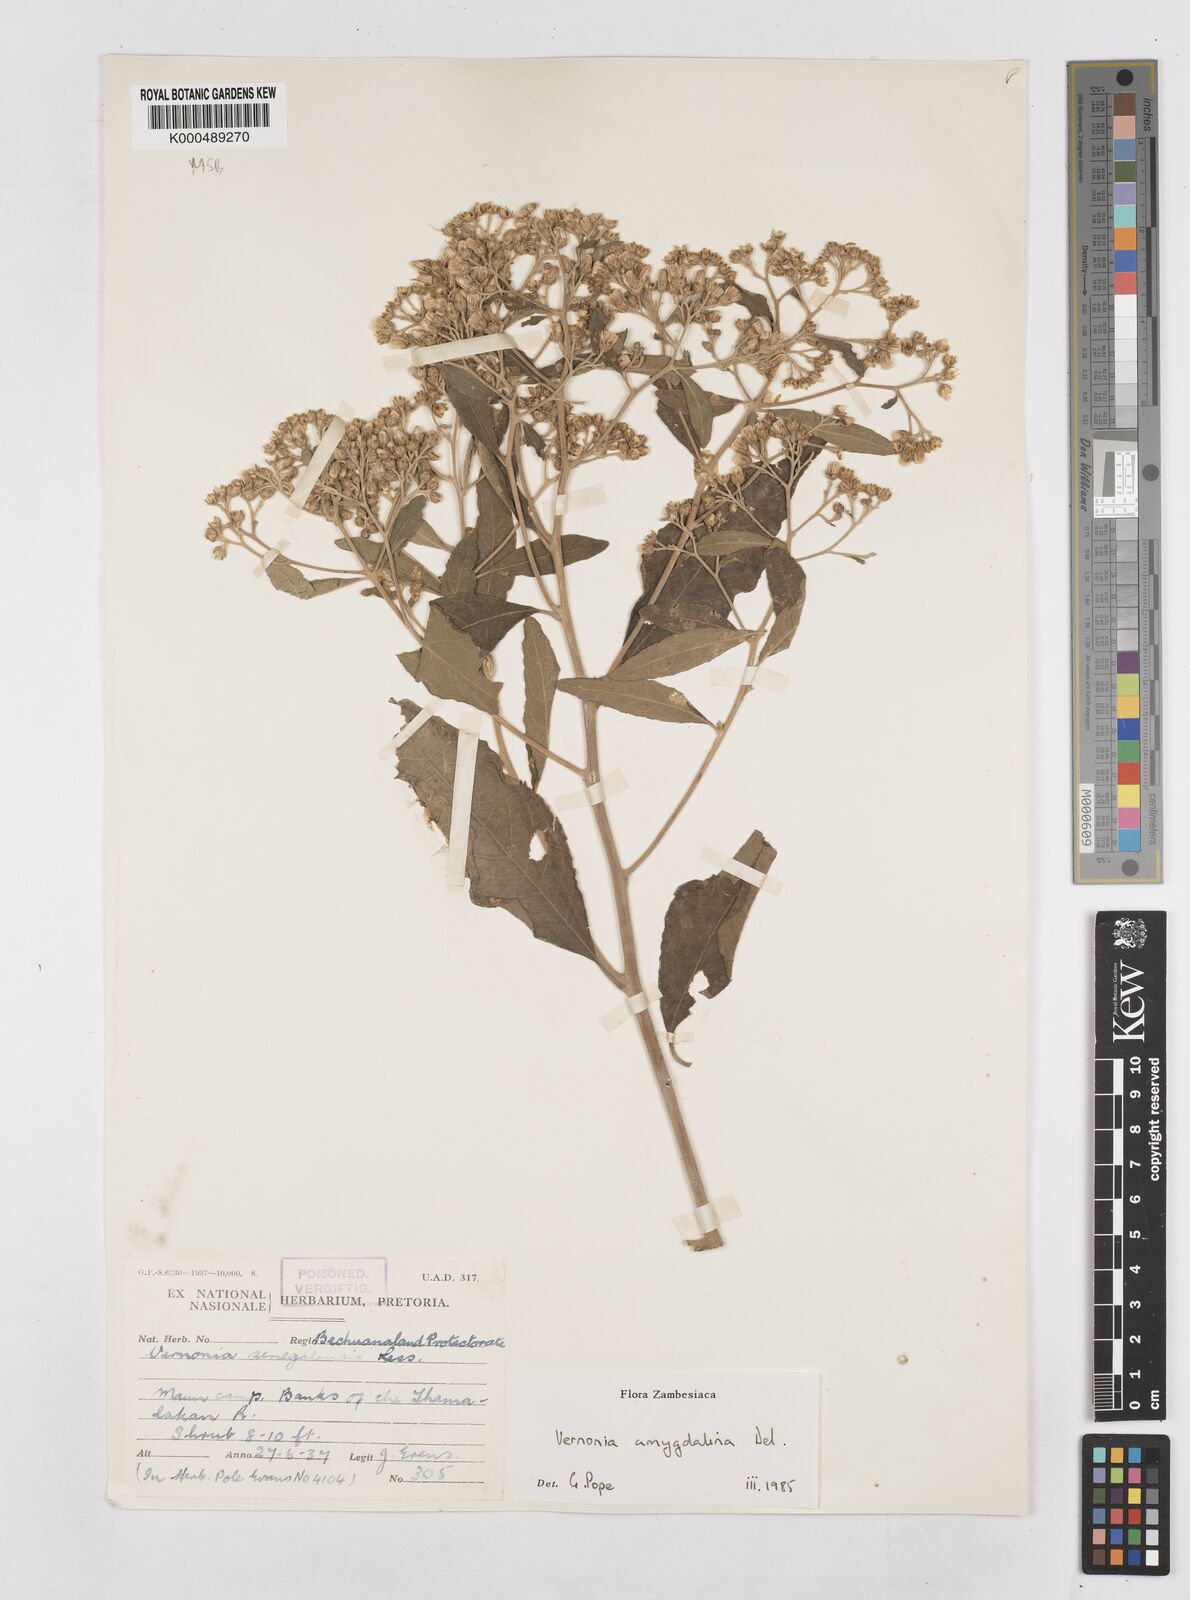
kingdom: Plantae
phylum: Tracheophyta
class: Magnoliopsida
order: Asterales
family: Asteraceae
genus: Gymnanthemum
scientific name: Gymnanthemum amygdalinum
